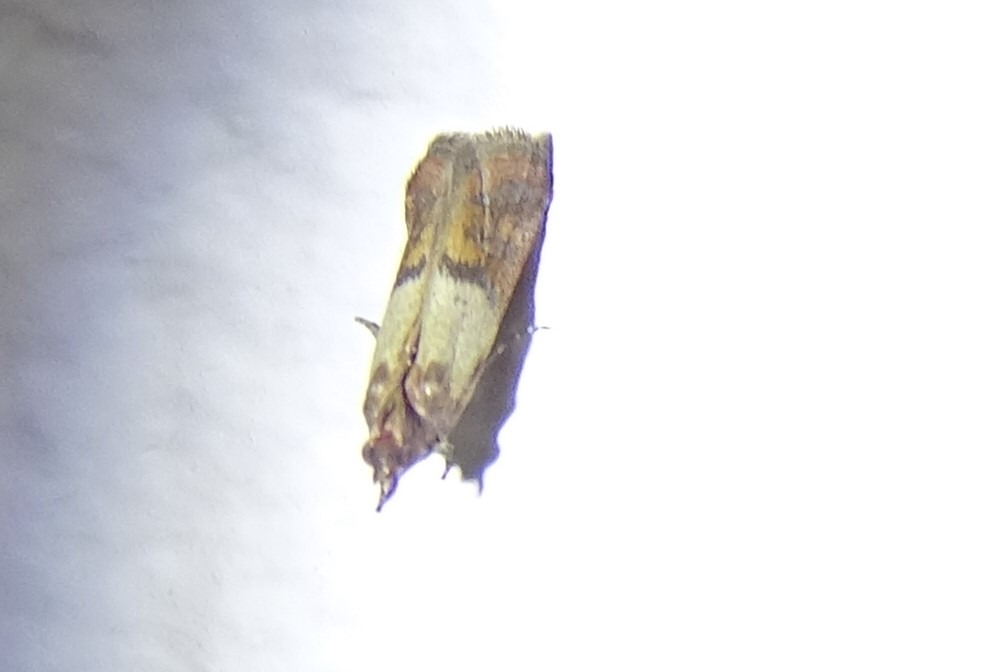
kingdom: Animalia
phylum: Arthropoda
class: Insecta
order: Lepidoptera
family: Pyralidae
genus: Plodia
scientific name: Plodia interpunctella
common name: Tofarvet frømøl
